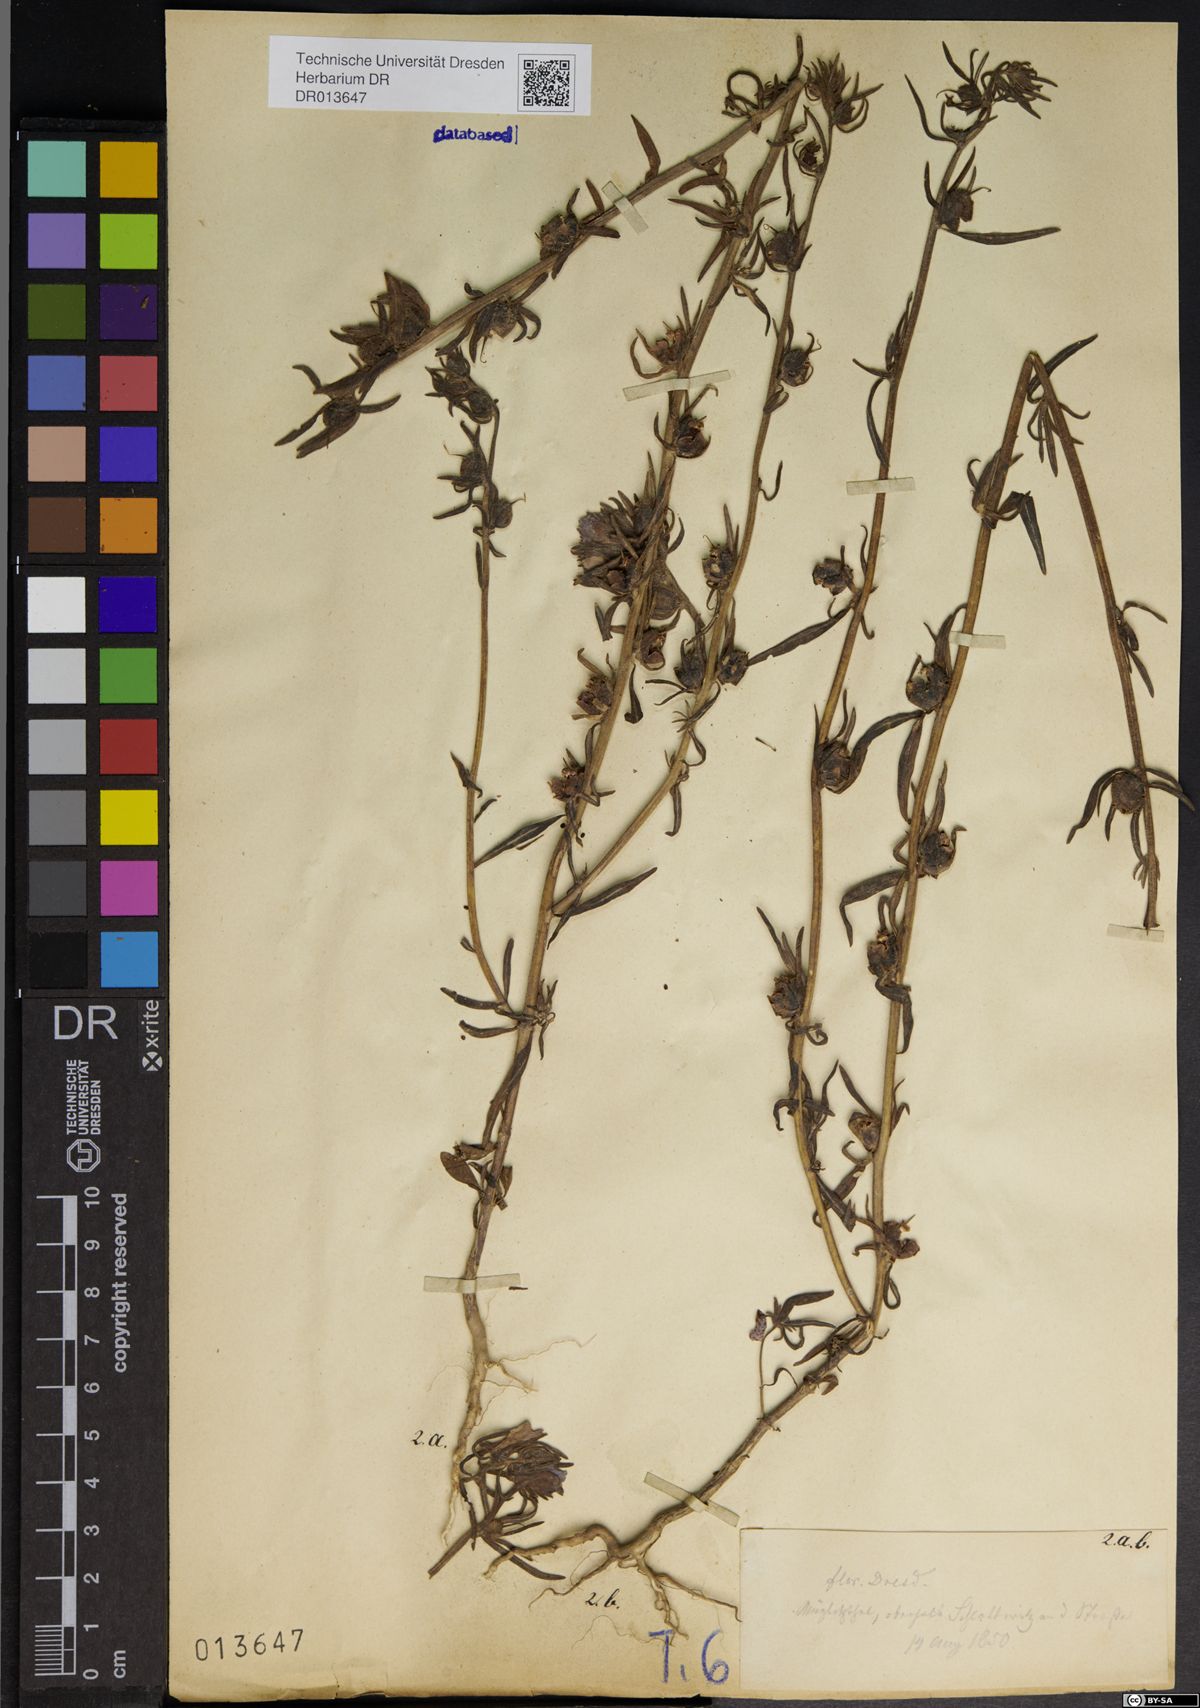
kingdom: Plantae
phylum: Tracheophyta
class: Magnoliopsida
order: Lamiales
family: Plantaginaceae
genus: Misopates
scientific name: Misopates orontium
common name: Weasel's-snout
